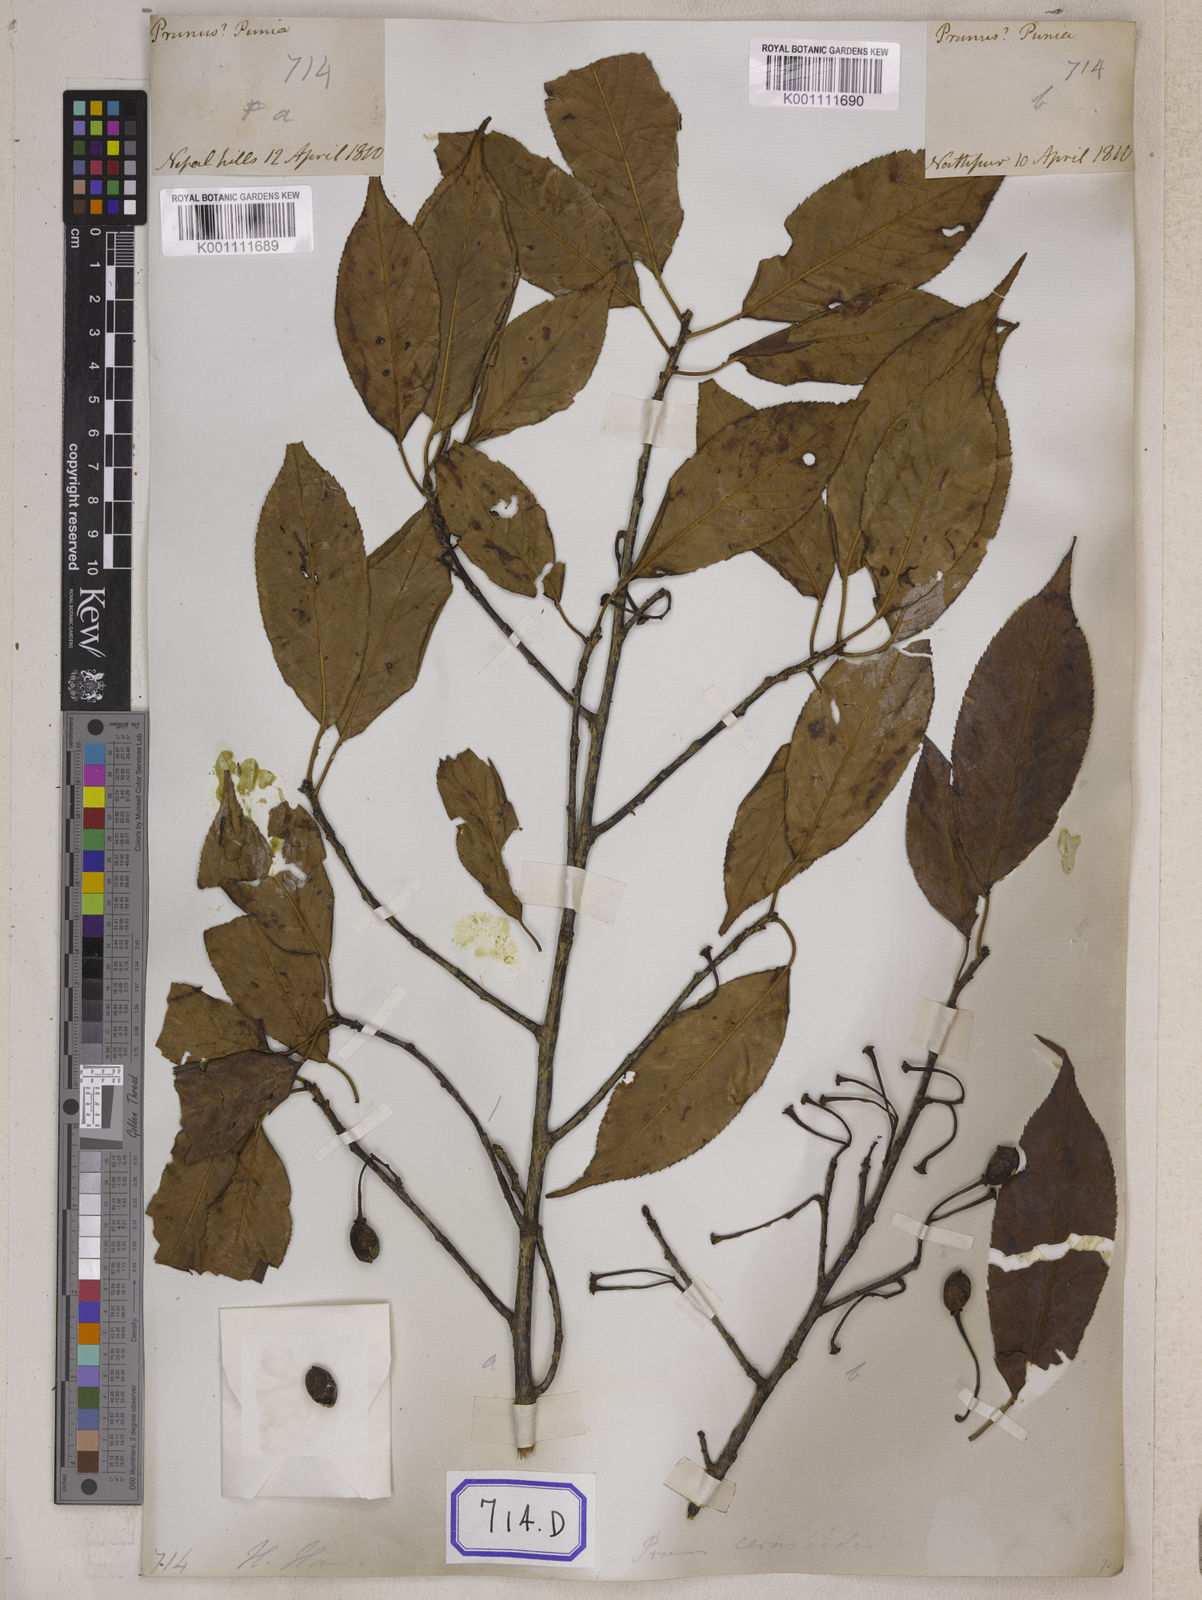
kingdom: Plantae
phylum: Tracheophyta
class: Magnoliopsida
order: Rosales
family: Rosaceae
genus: Prunus
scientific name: Prunus Cerasus myrtifolia
